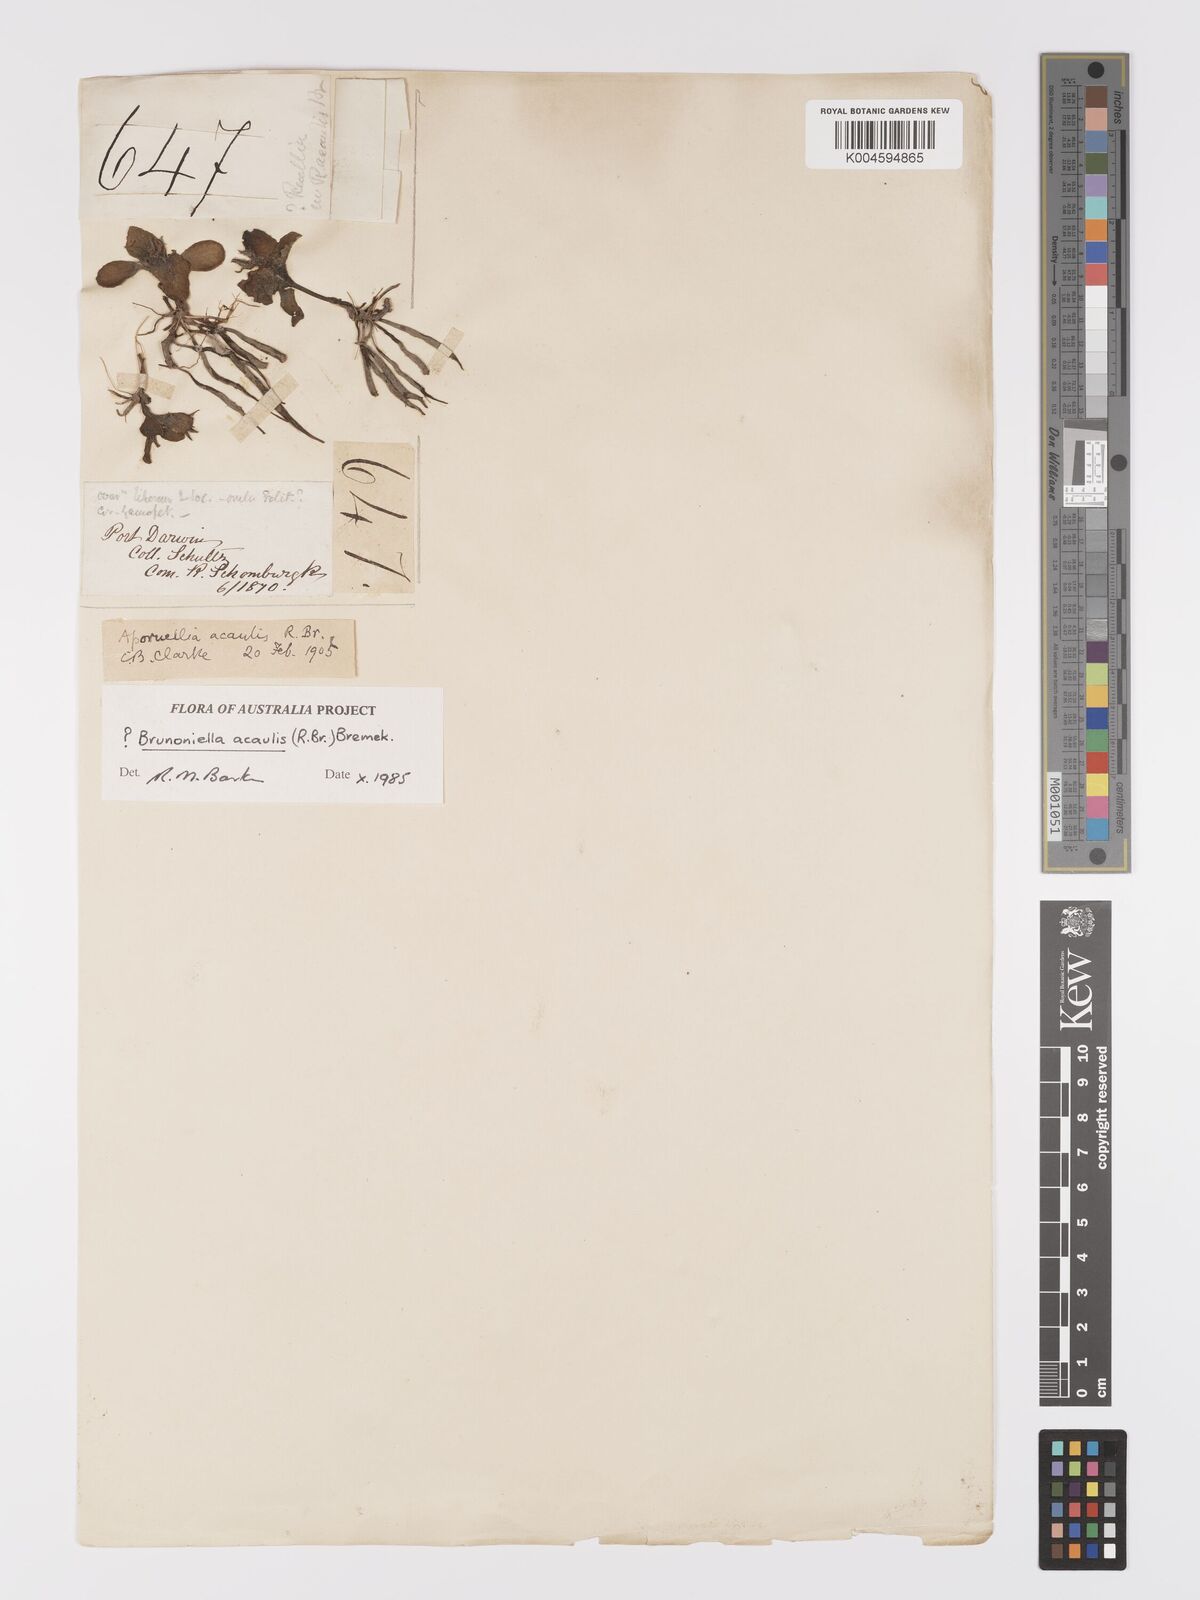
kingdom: Plantae
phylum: Tracheophyta
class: Magnoliopsida
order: Lamiales
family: Acanthaceae
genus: Brunoniella
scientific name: Brunoniella acaulis
